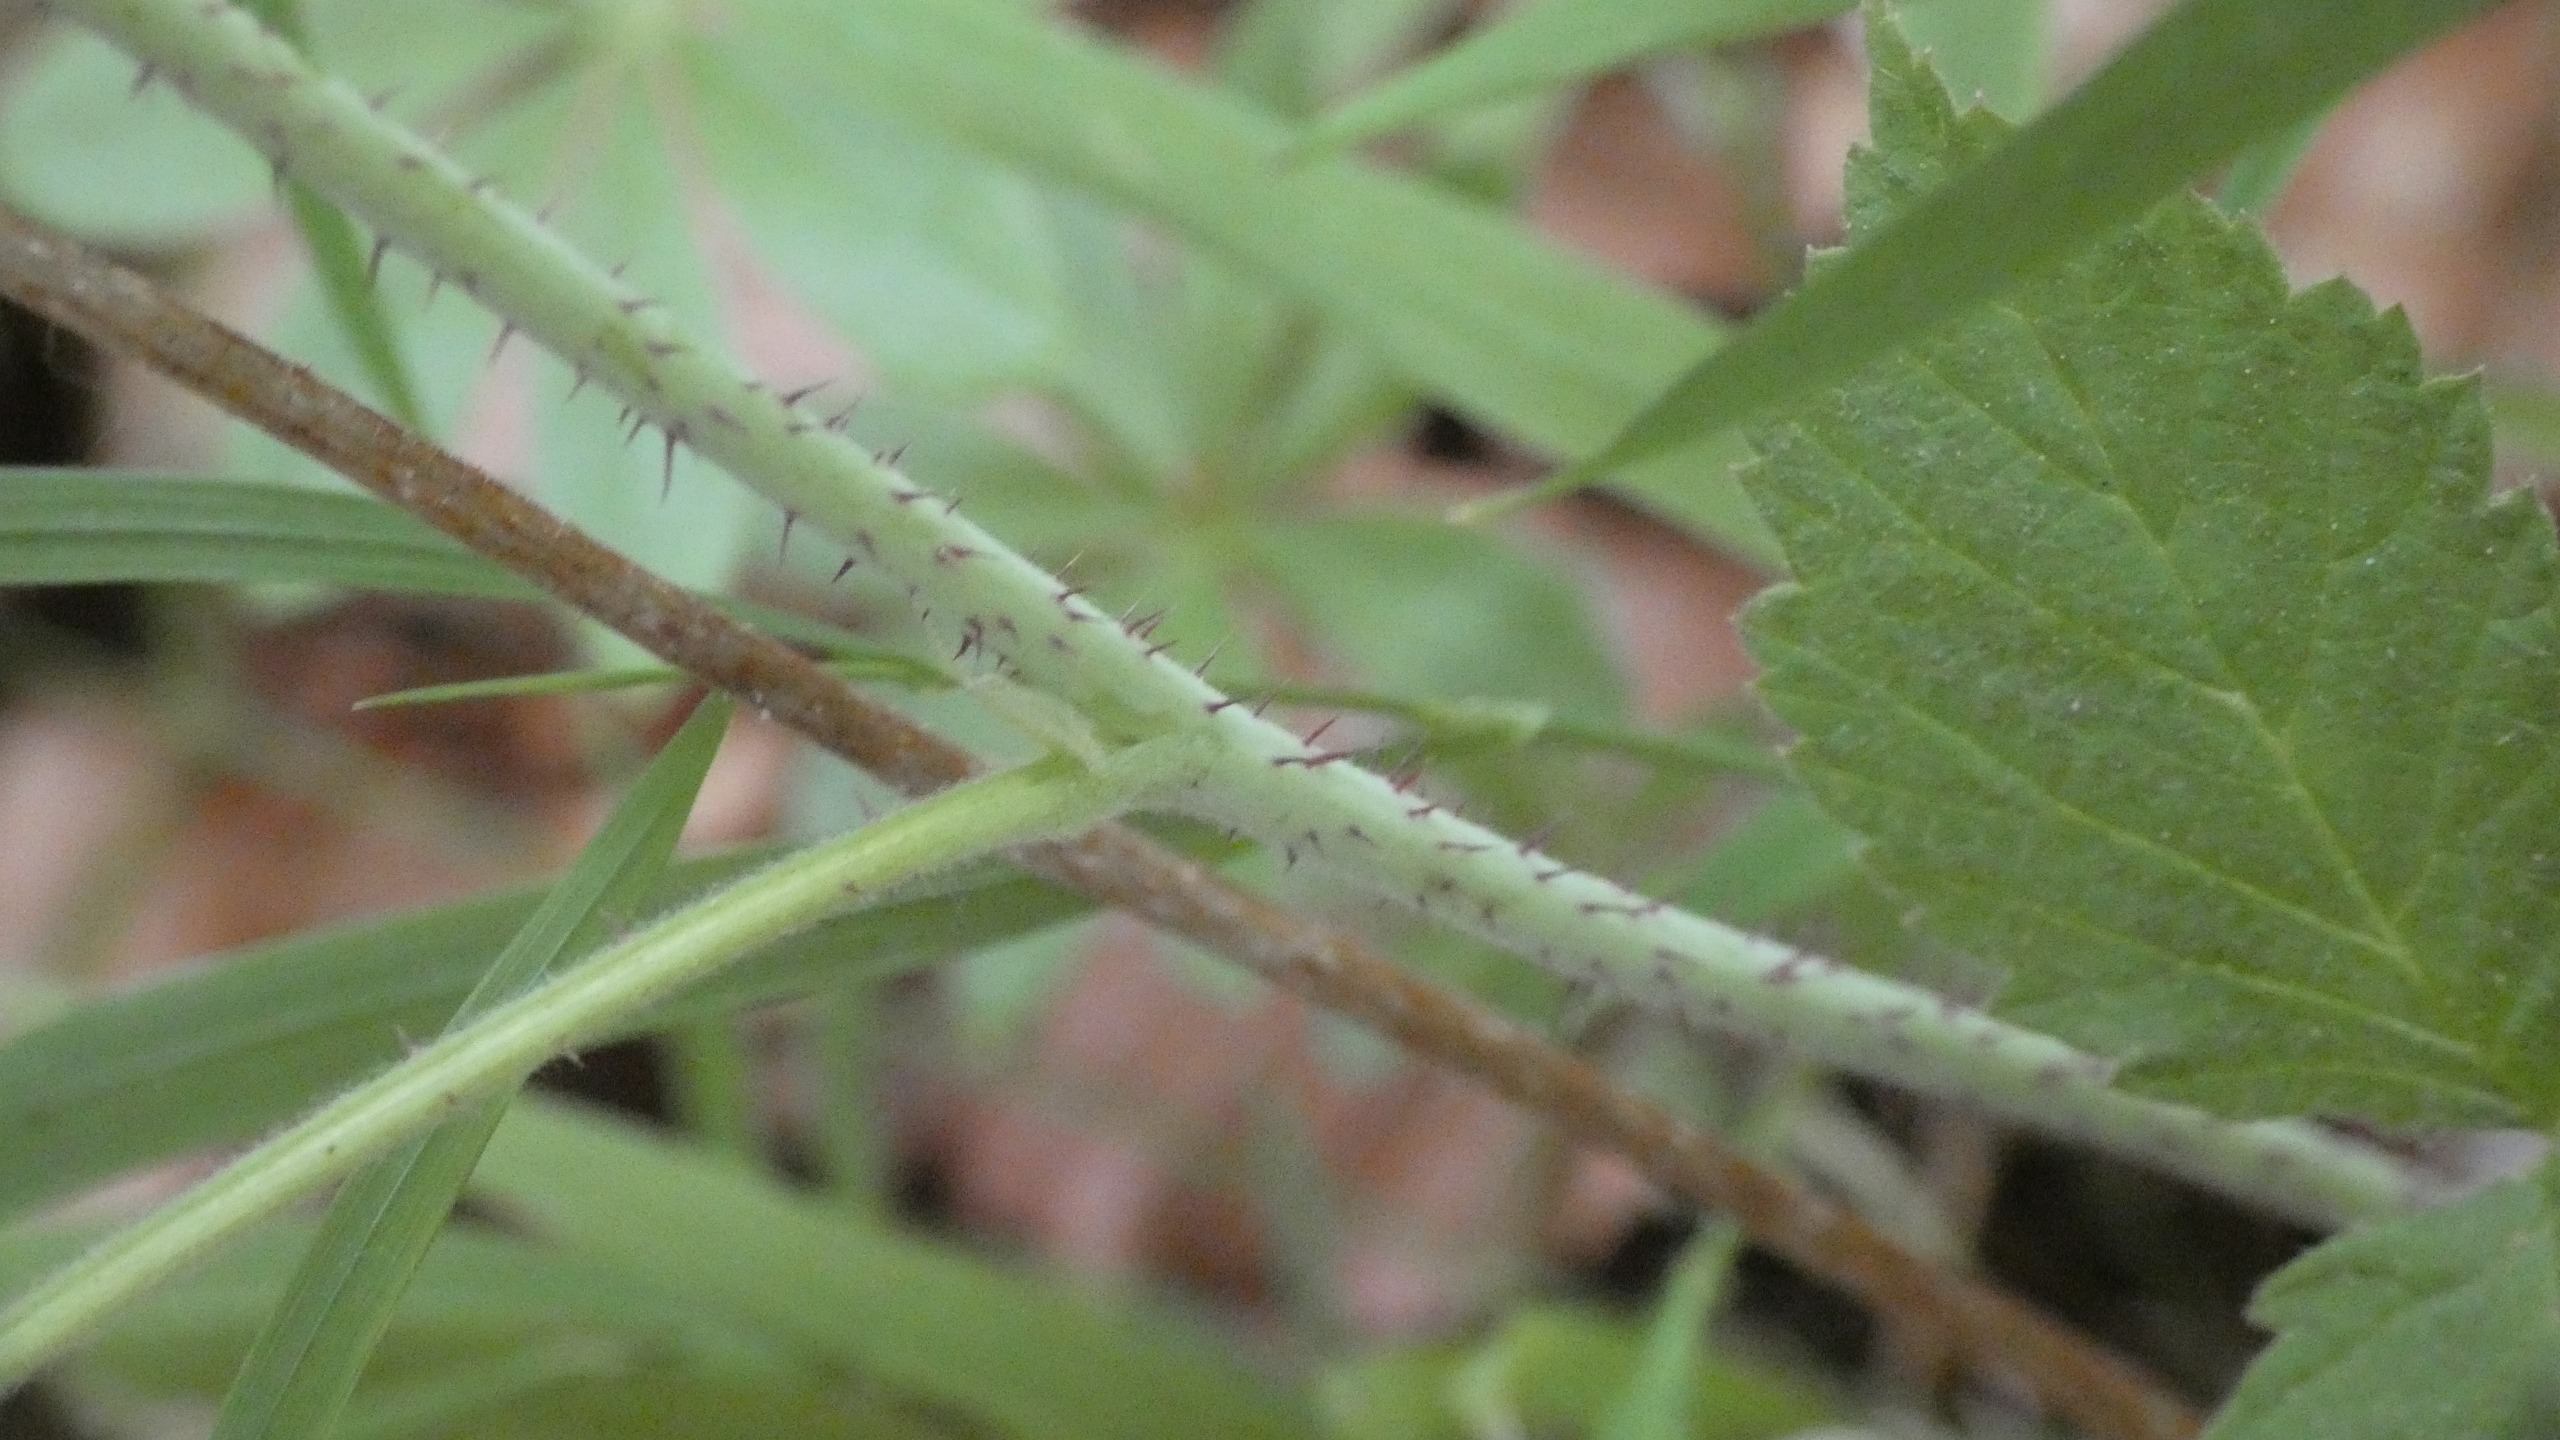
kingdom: Plantae
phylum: Tracheophyta
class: Magnoliopsida
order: Rosales
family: Rosaceae
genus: Rubus
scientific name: Rubus idaeus
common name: Hindbær
